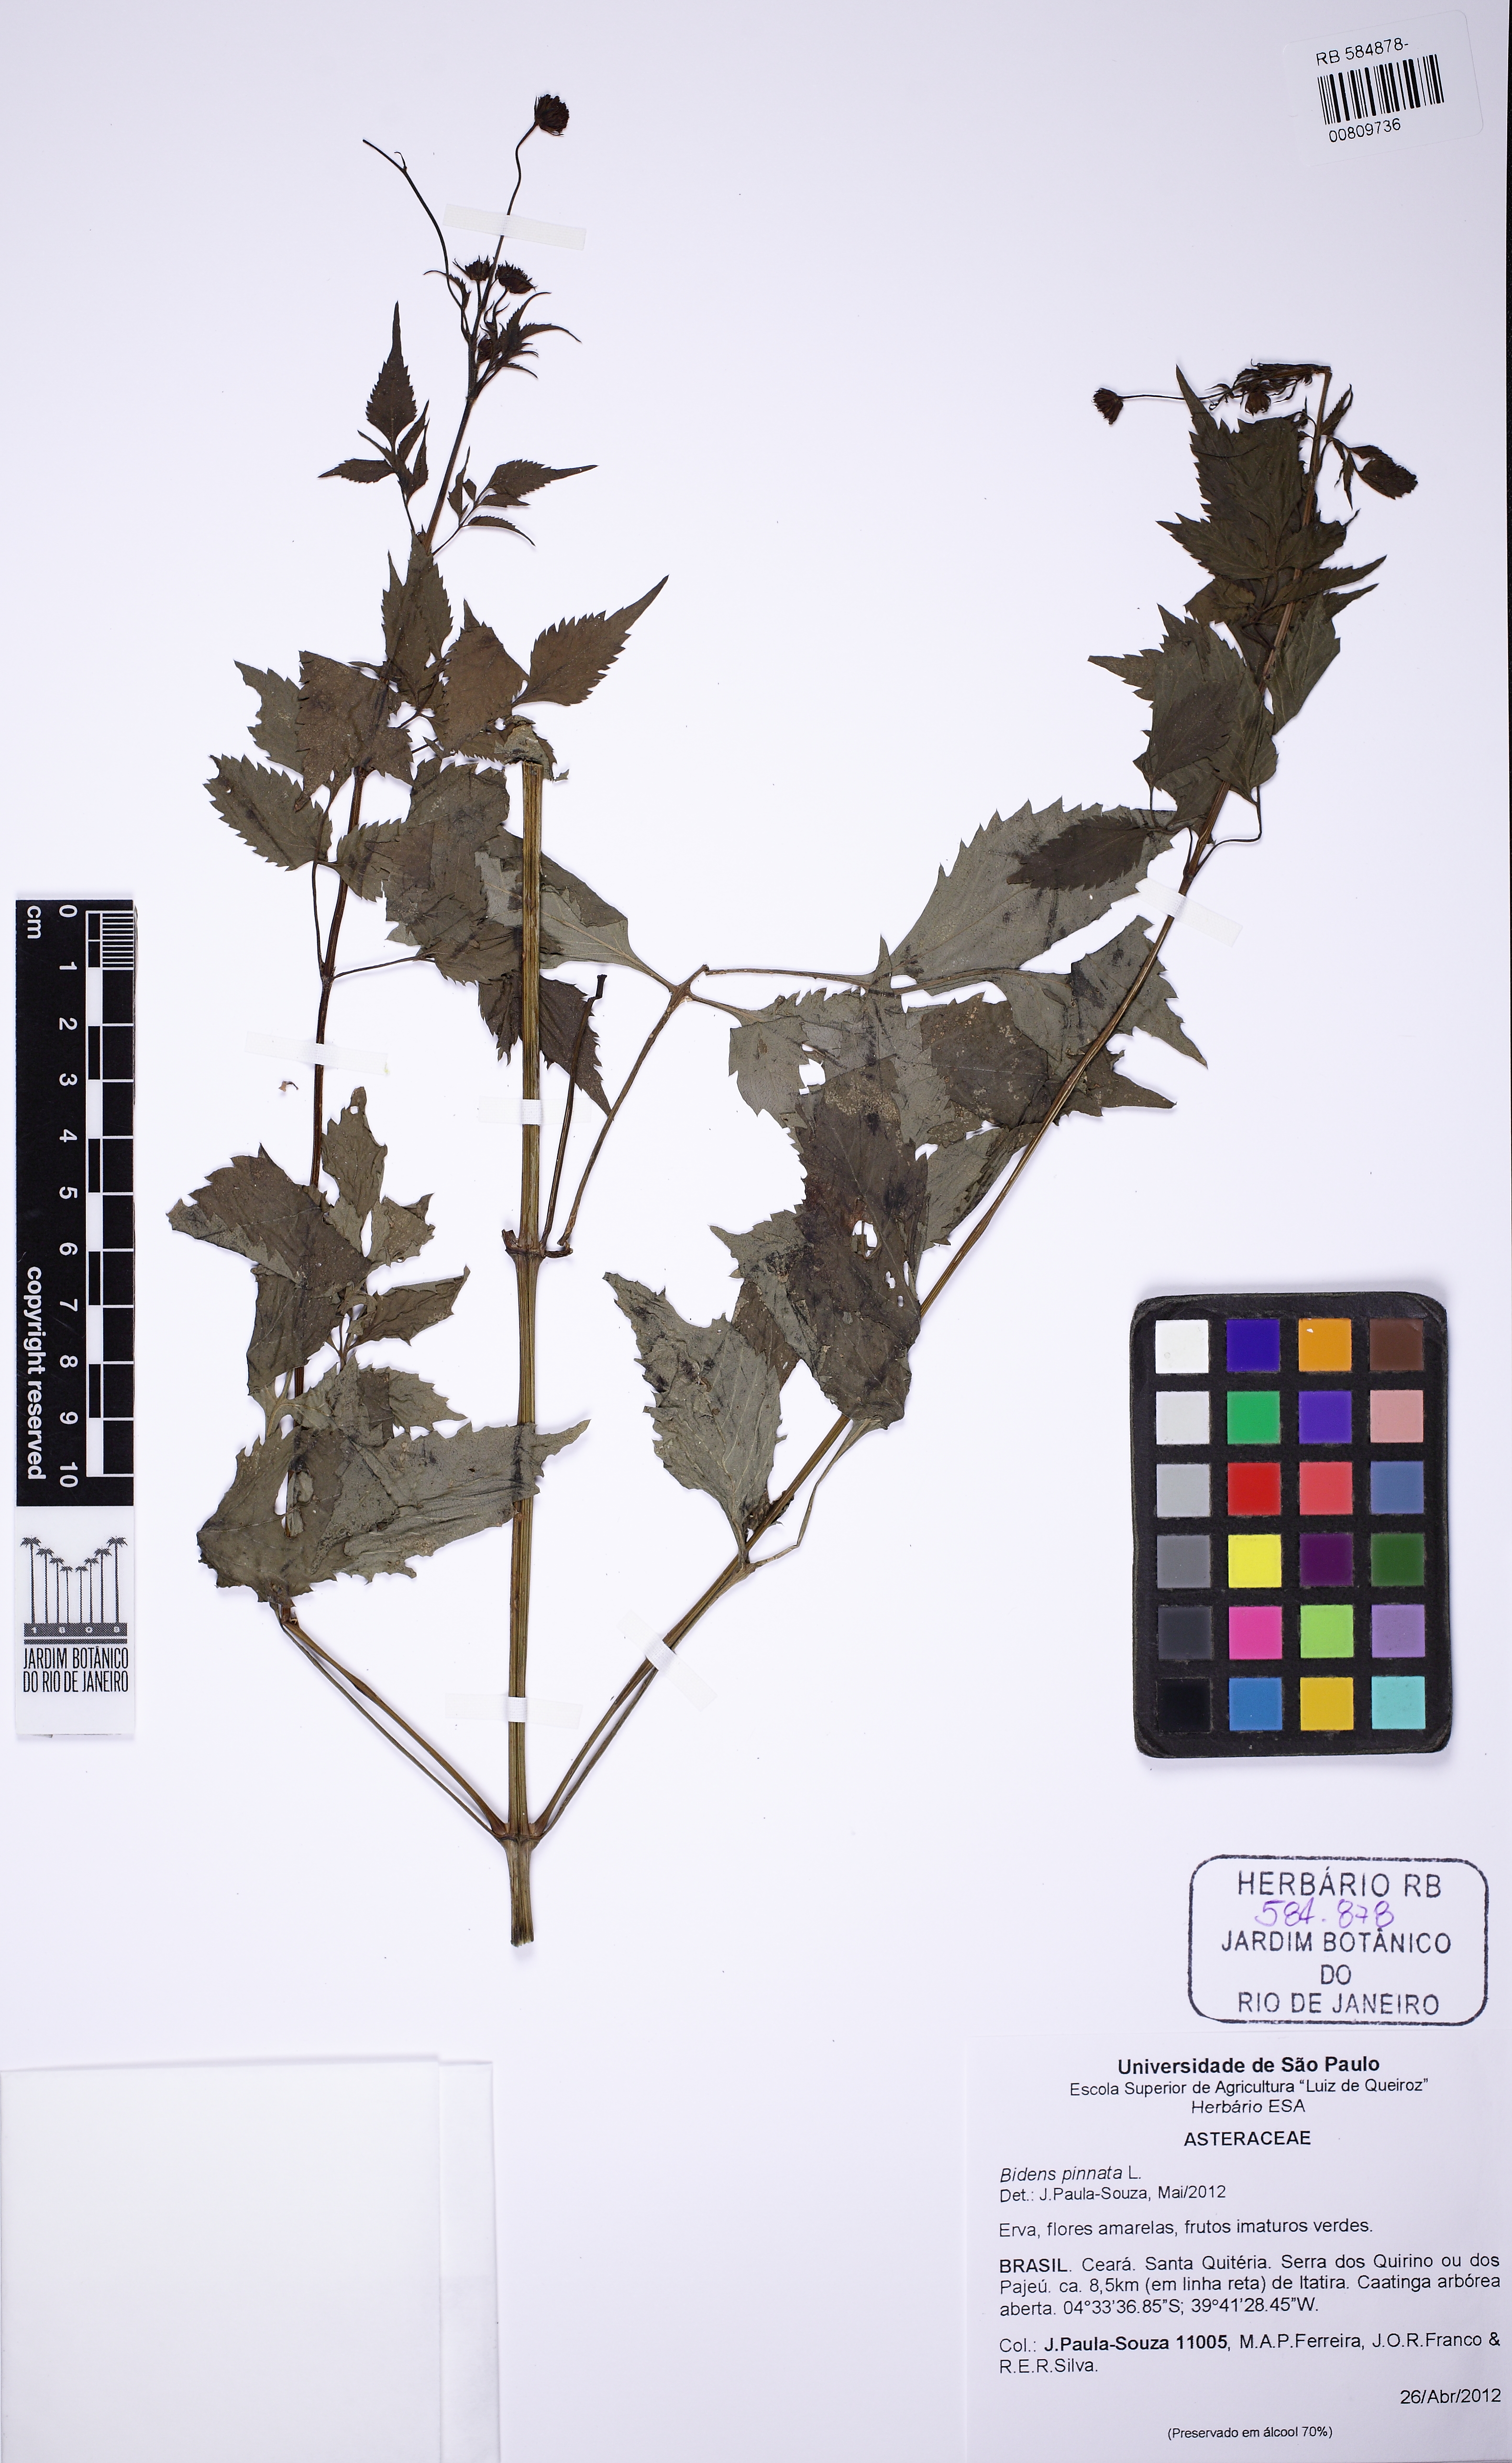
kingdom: Plantae
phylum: Tracheophyta
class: Magnoliopsida
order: Asterales
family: Asteraceae
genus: Bidens
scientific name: Bidens pilosa
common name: Black-jack
